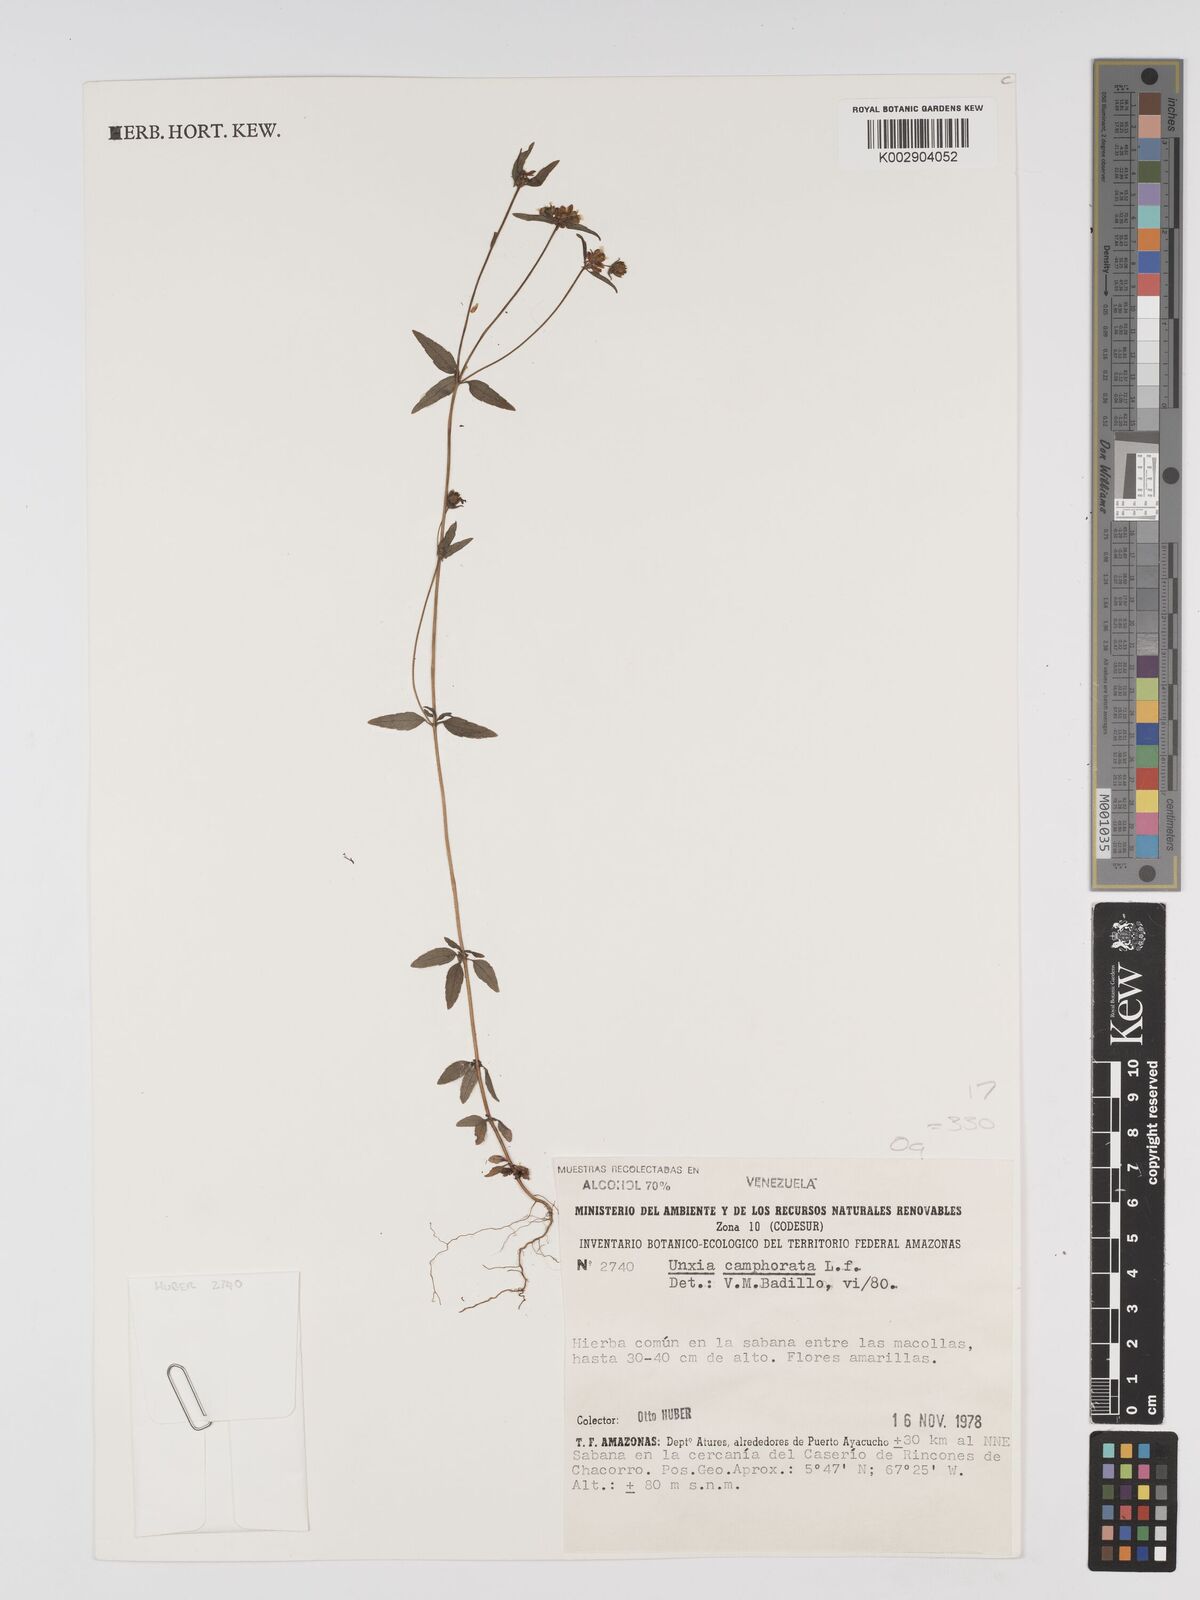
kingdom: Plantae
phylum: Tracheophyta
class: Magnoliopsida
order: Asterales
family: Asteraceae
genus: Unxia
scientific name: Unxia camphorata
